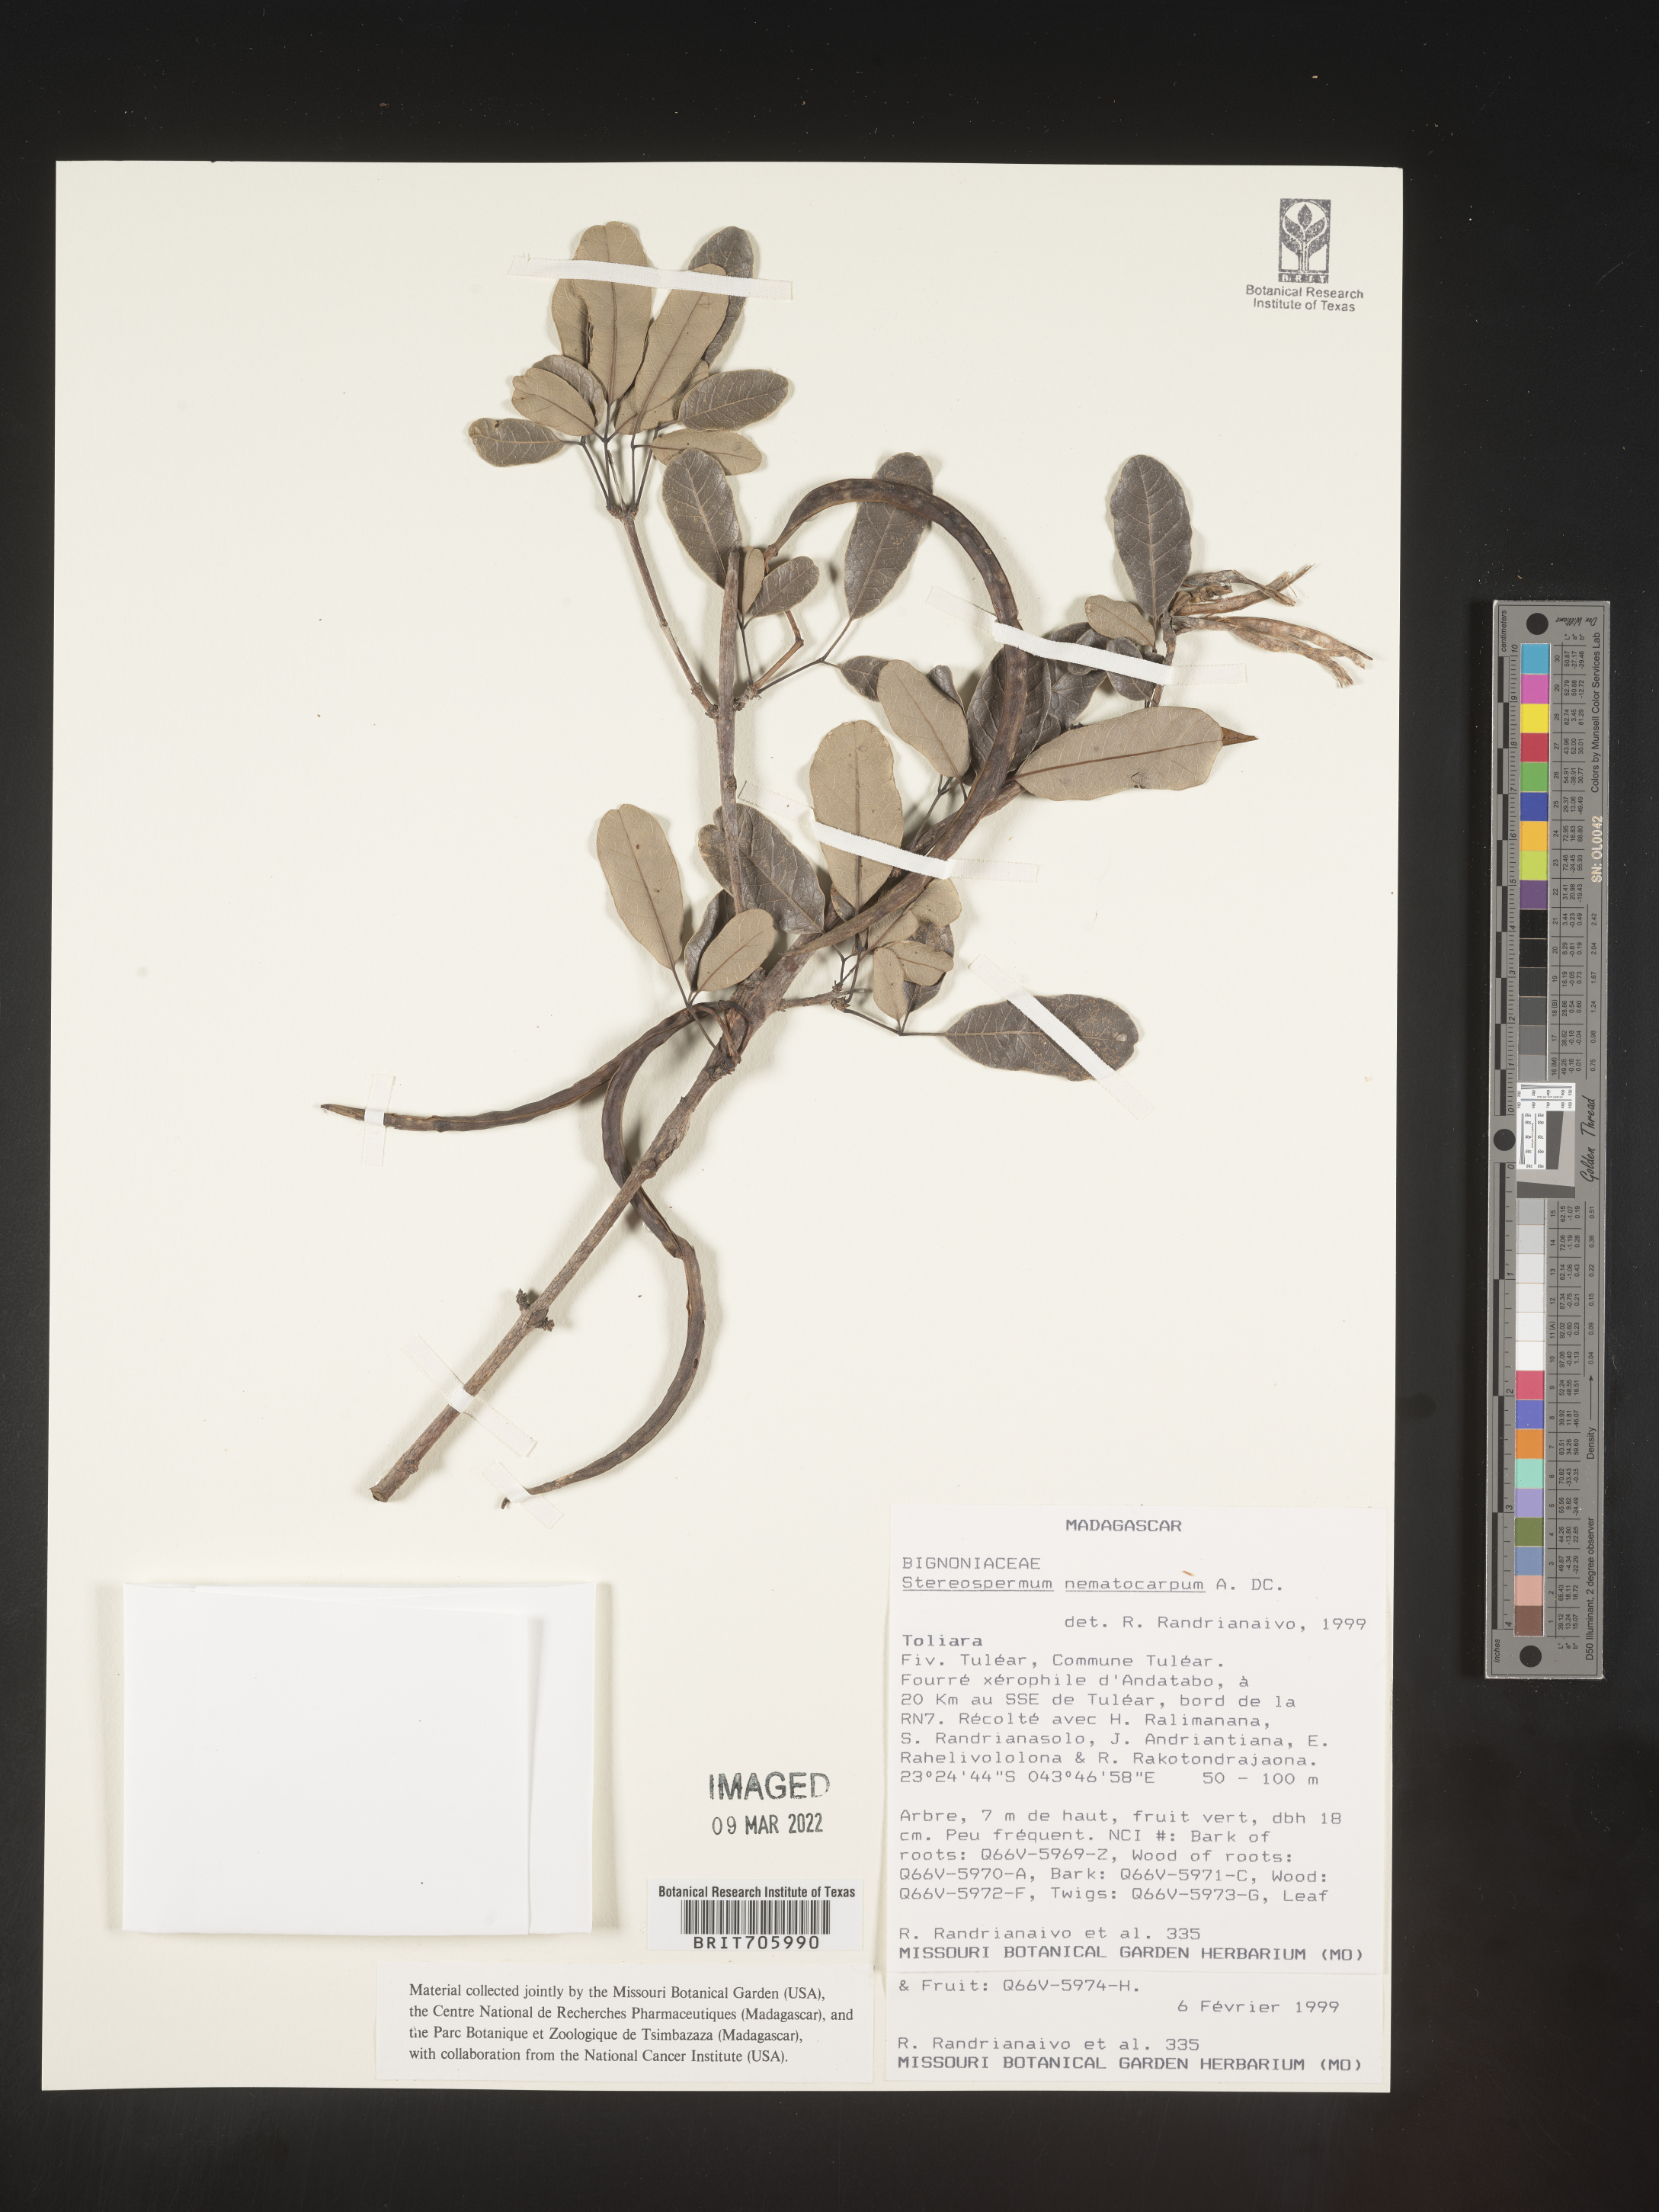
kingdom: Plantae
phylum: Tracheophyta
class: Magnoliopsida
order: Lamiales
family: Bignoniaceae
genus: Stereospermum
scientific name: Stereospermum
